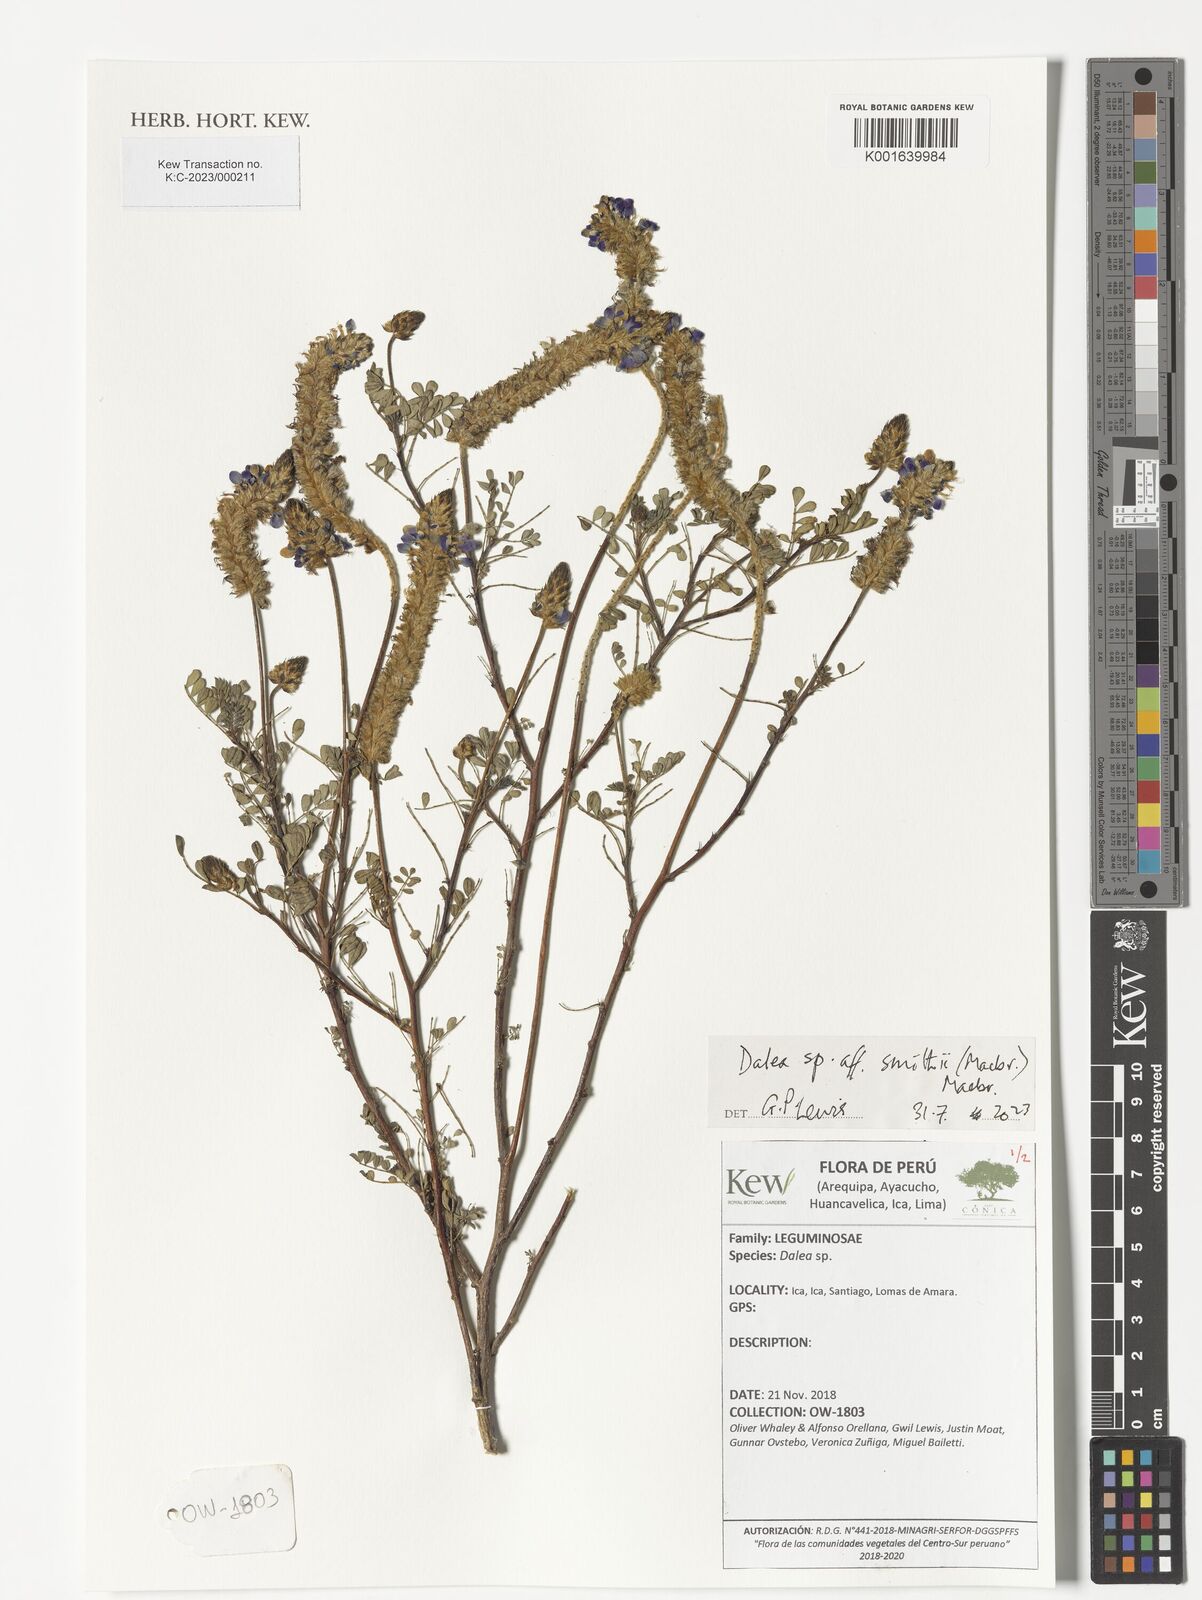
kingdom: Plantae
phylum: Tracheophyta
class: Magnoliopsida
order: Fabales
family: Fabaceae
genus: Dalea
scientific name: Dalea smithii
